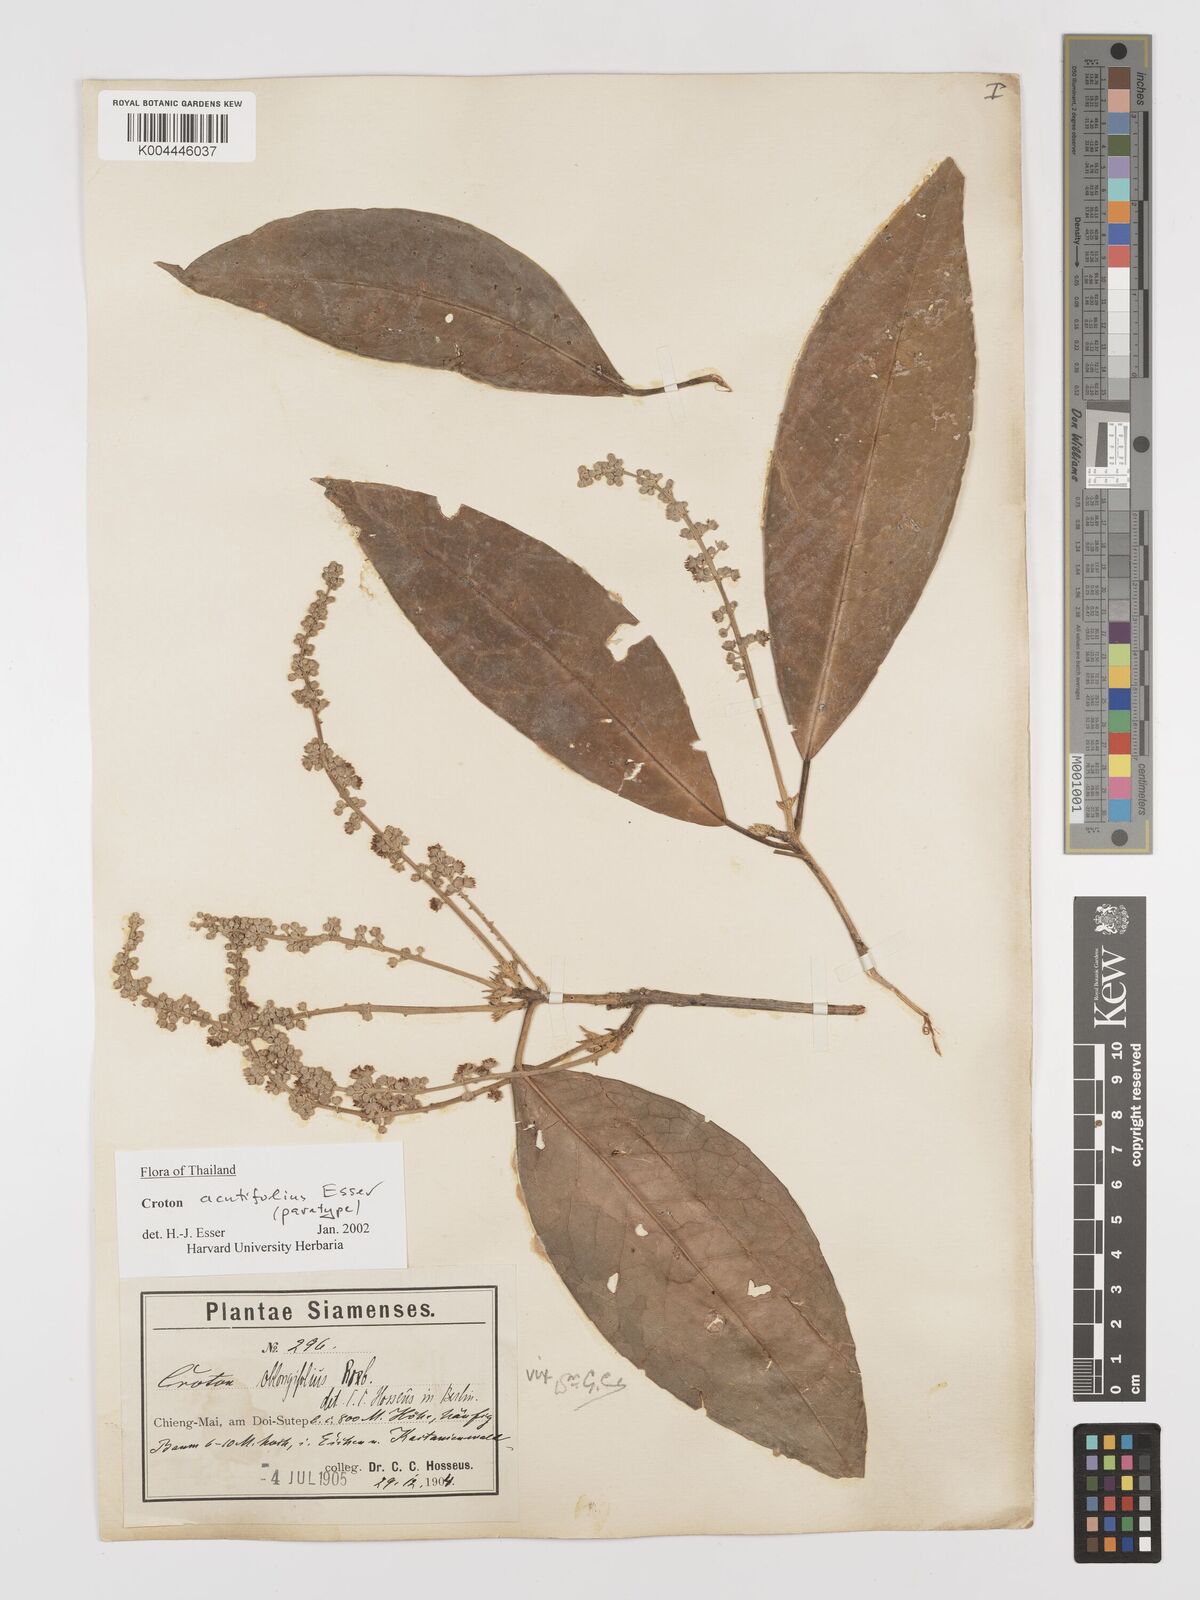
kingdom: Plantae
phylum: Tracheophyta
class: Magnoliopsida
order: Malpighiales
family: Euphorbiaceae
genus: Croton
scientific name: Croton acutifolius
